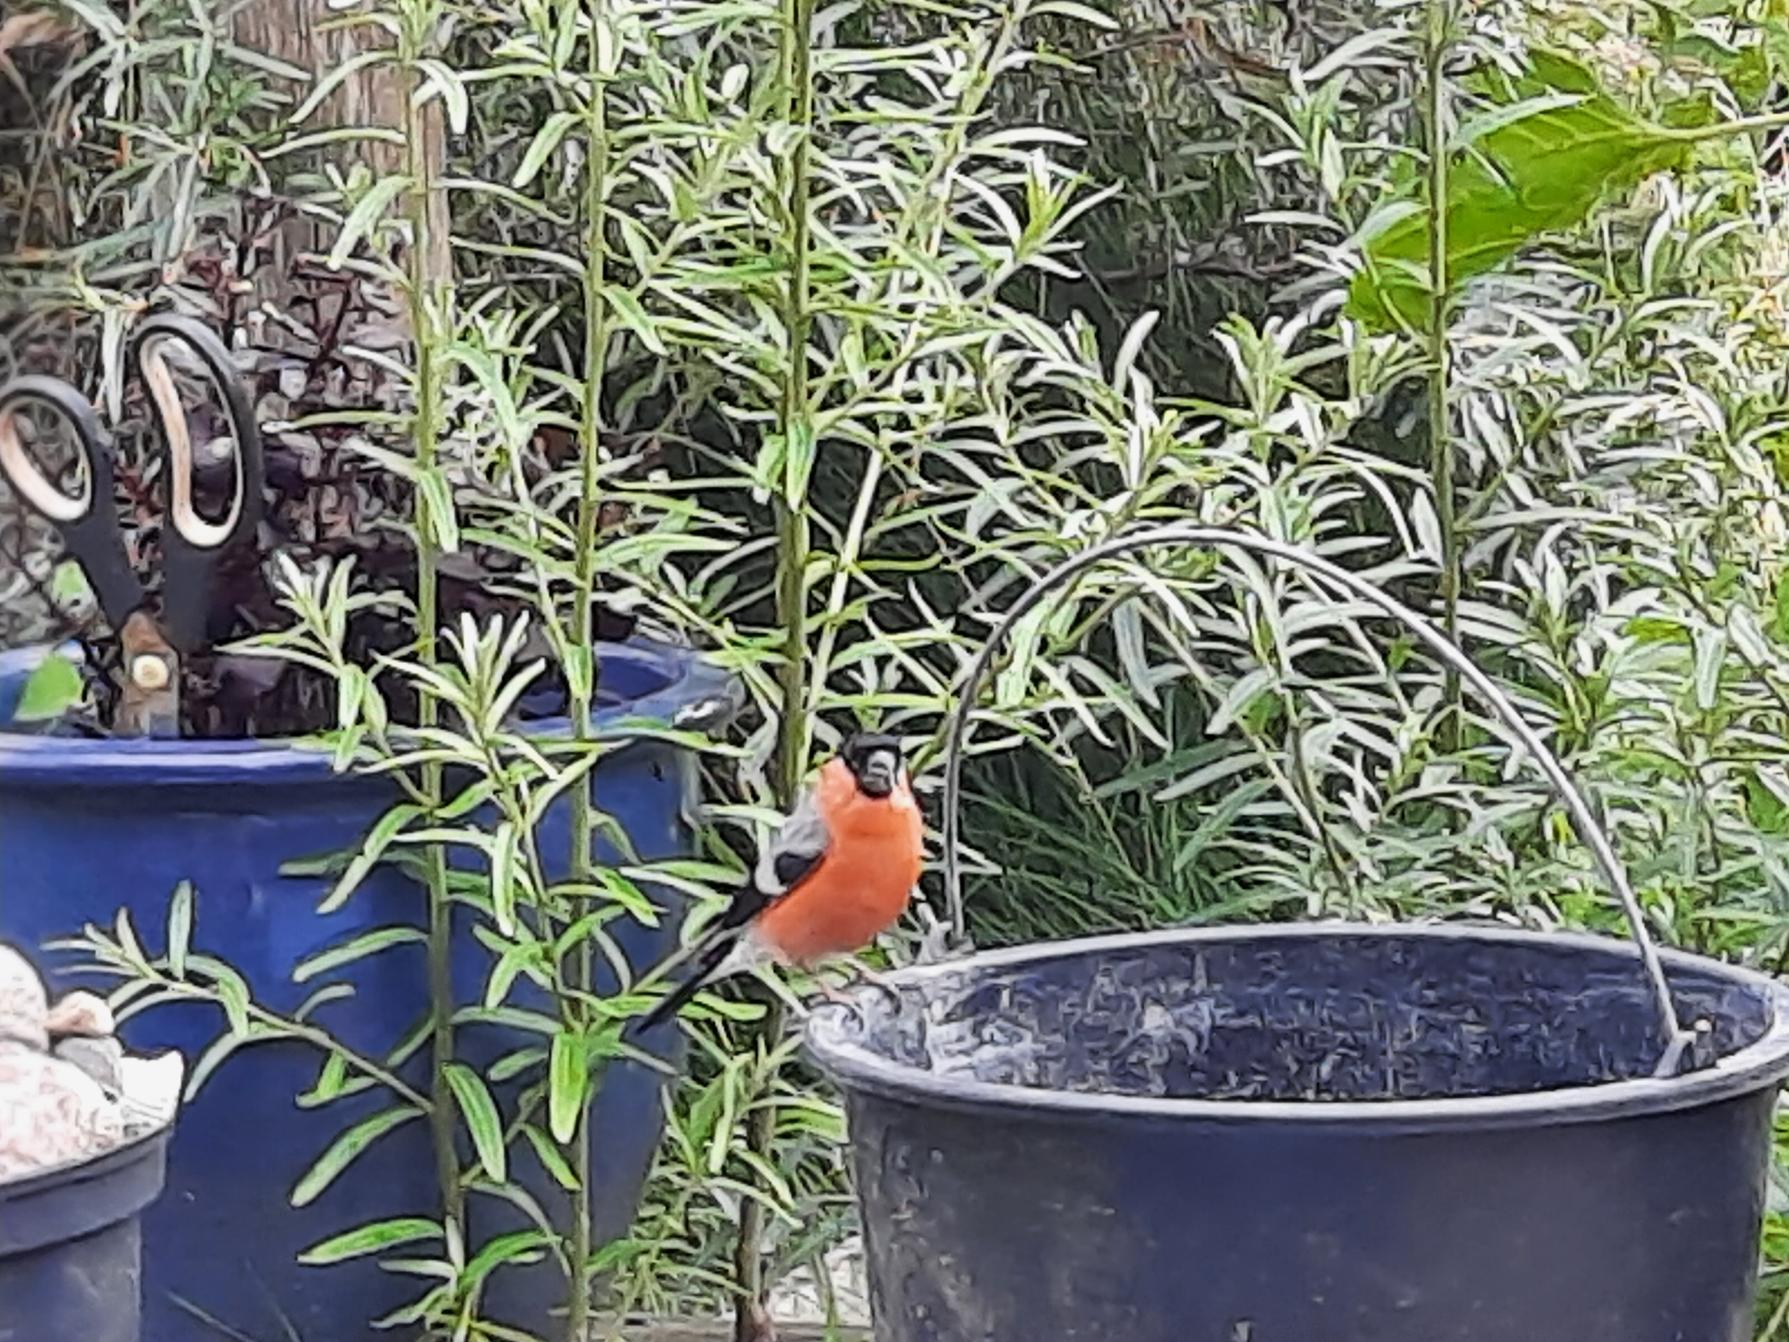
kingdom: Animalia
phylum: Chordata
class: Aves
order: Passeriformes
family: Fringillidae
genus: Pyrrhula
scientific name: Pyrrhula pyrrhula
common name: Dompap
